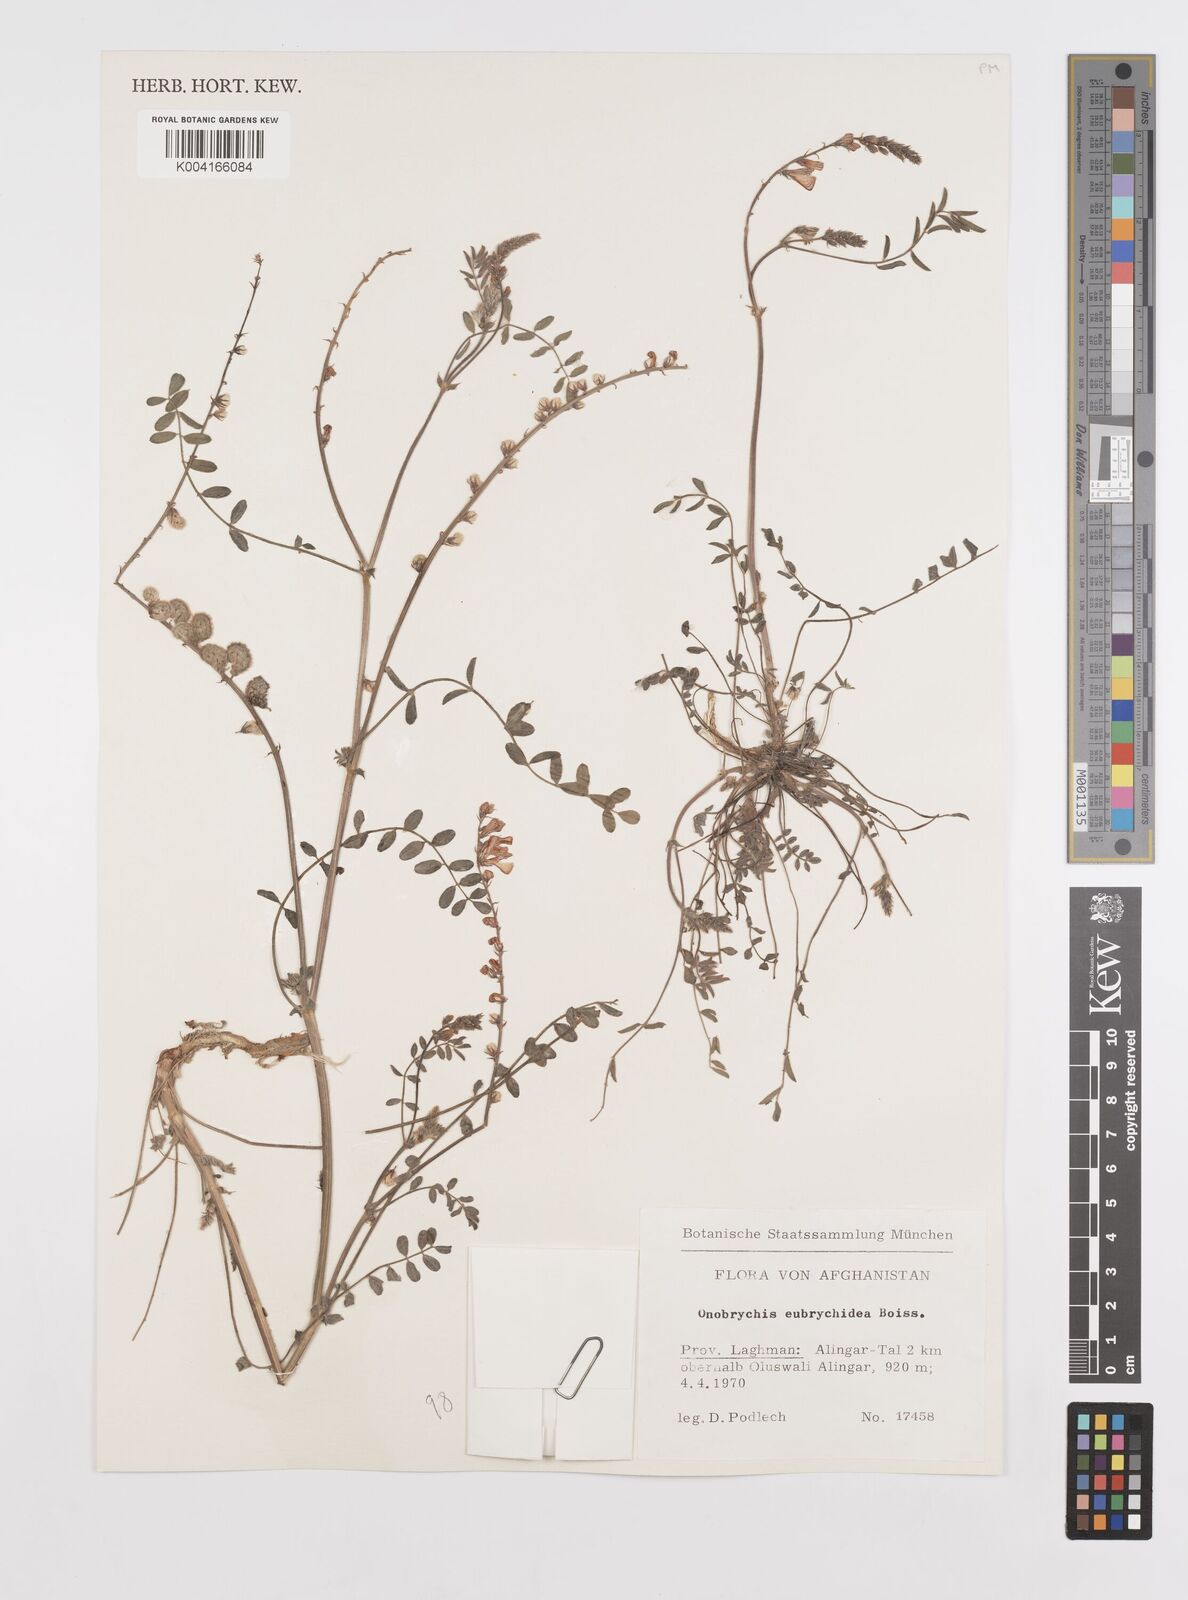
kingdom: Plantae
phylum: Tracheophyta
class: Magnoliopsida
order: Fabales
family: Fabaceae
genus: Onobrychis
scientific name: Onobrychis eubrychidea
